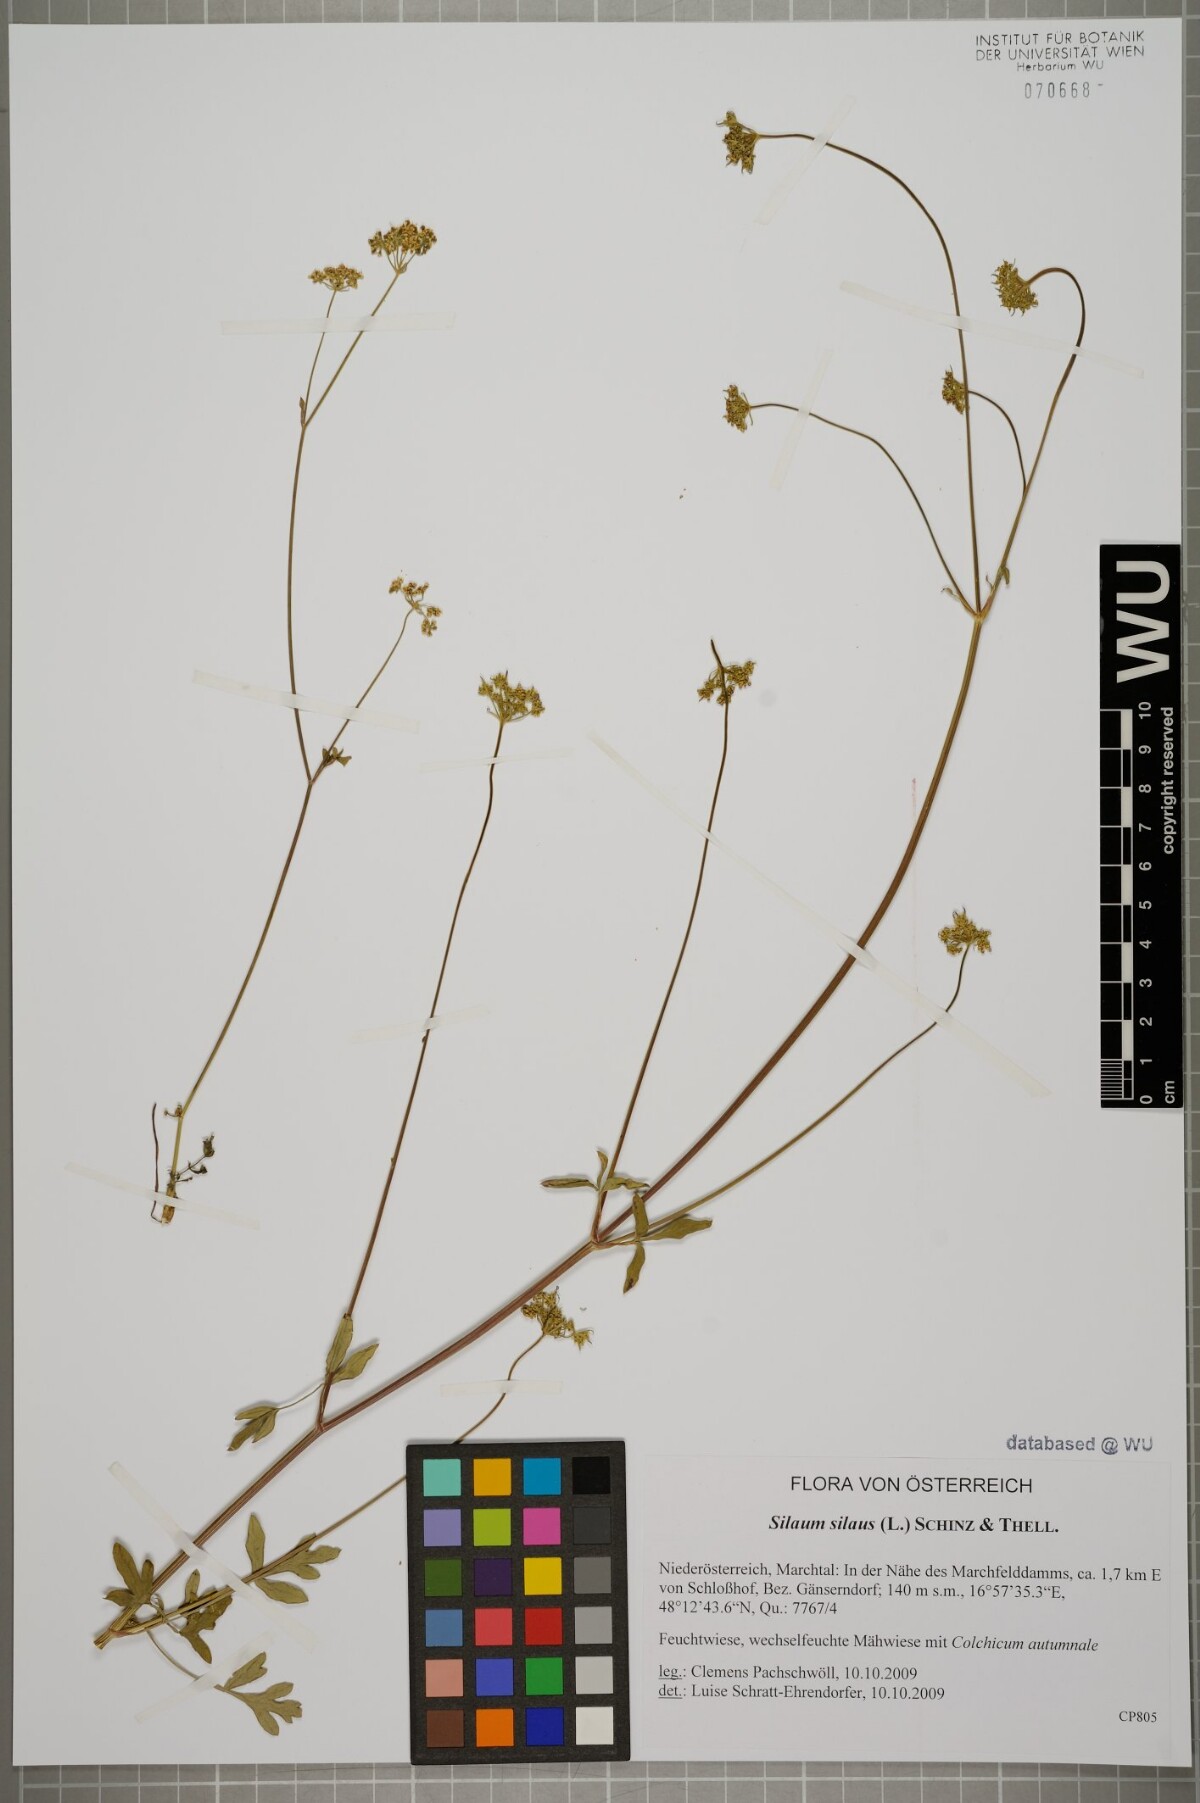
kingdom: Plantae
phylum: Tracheophyta
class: Magnoliopsida
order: Apiales
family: Apiaceae
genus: Silaum
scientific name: Silaum silaus
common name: Pepper-saxifrage
